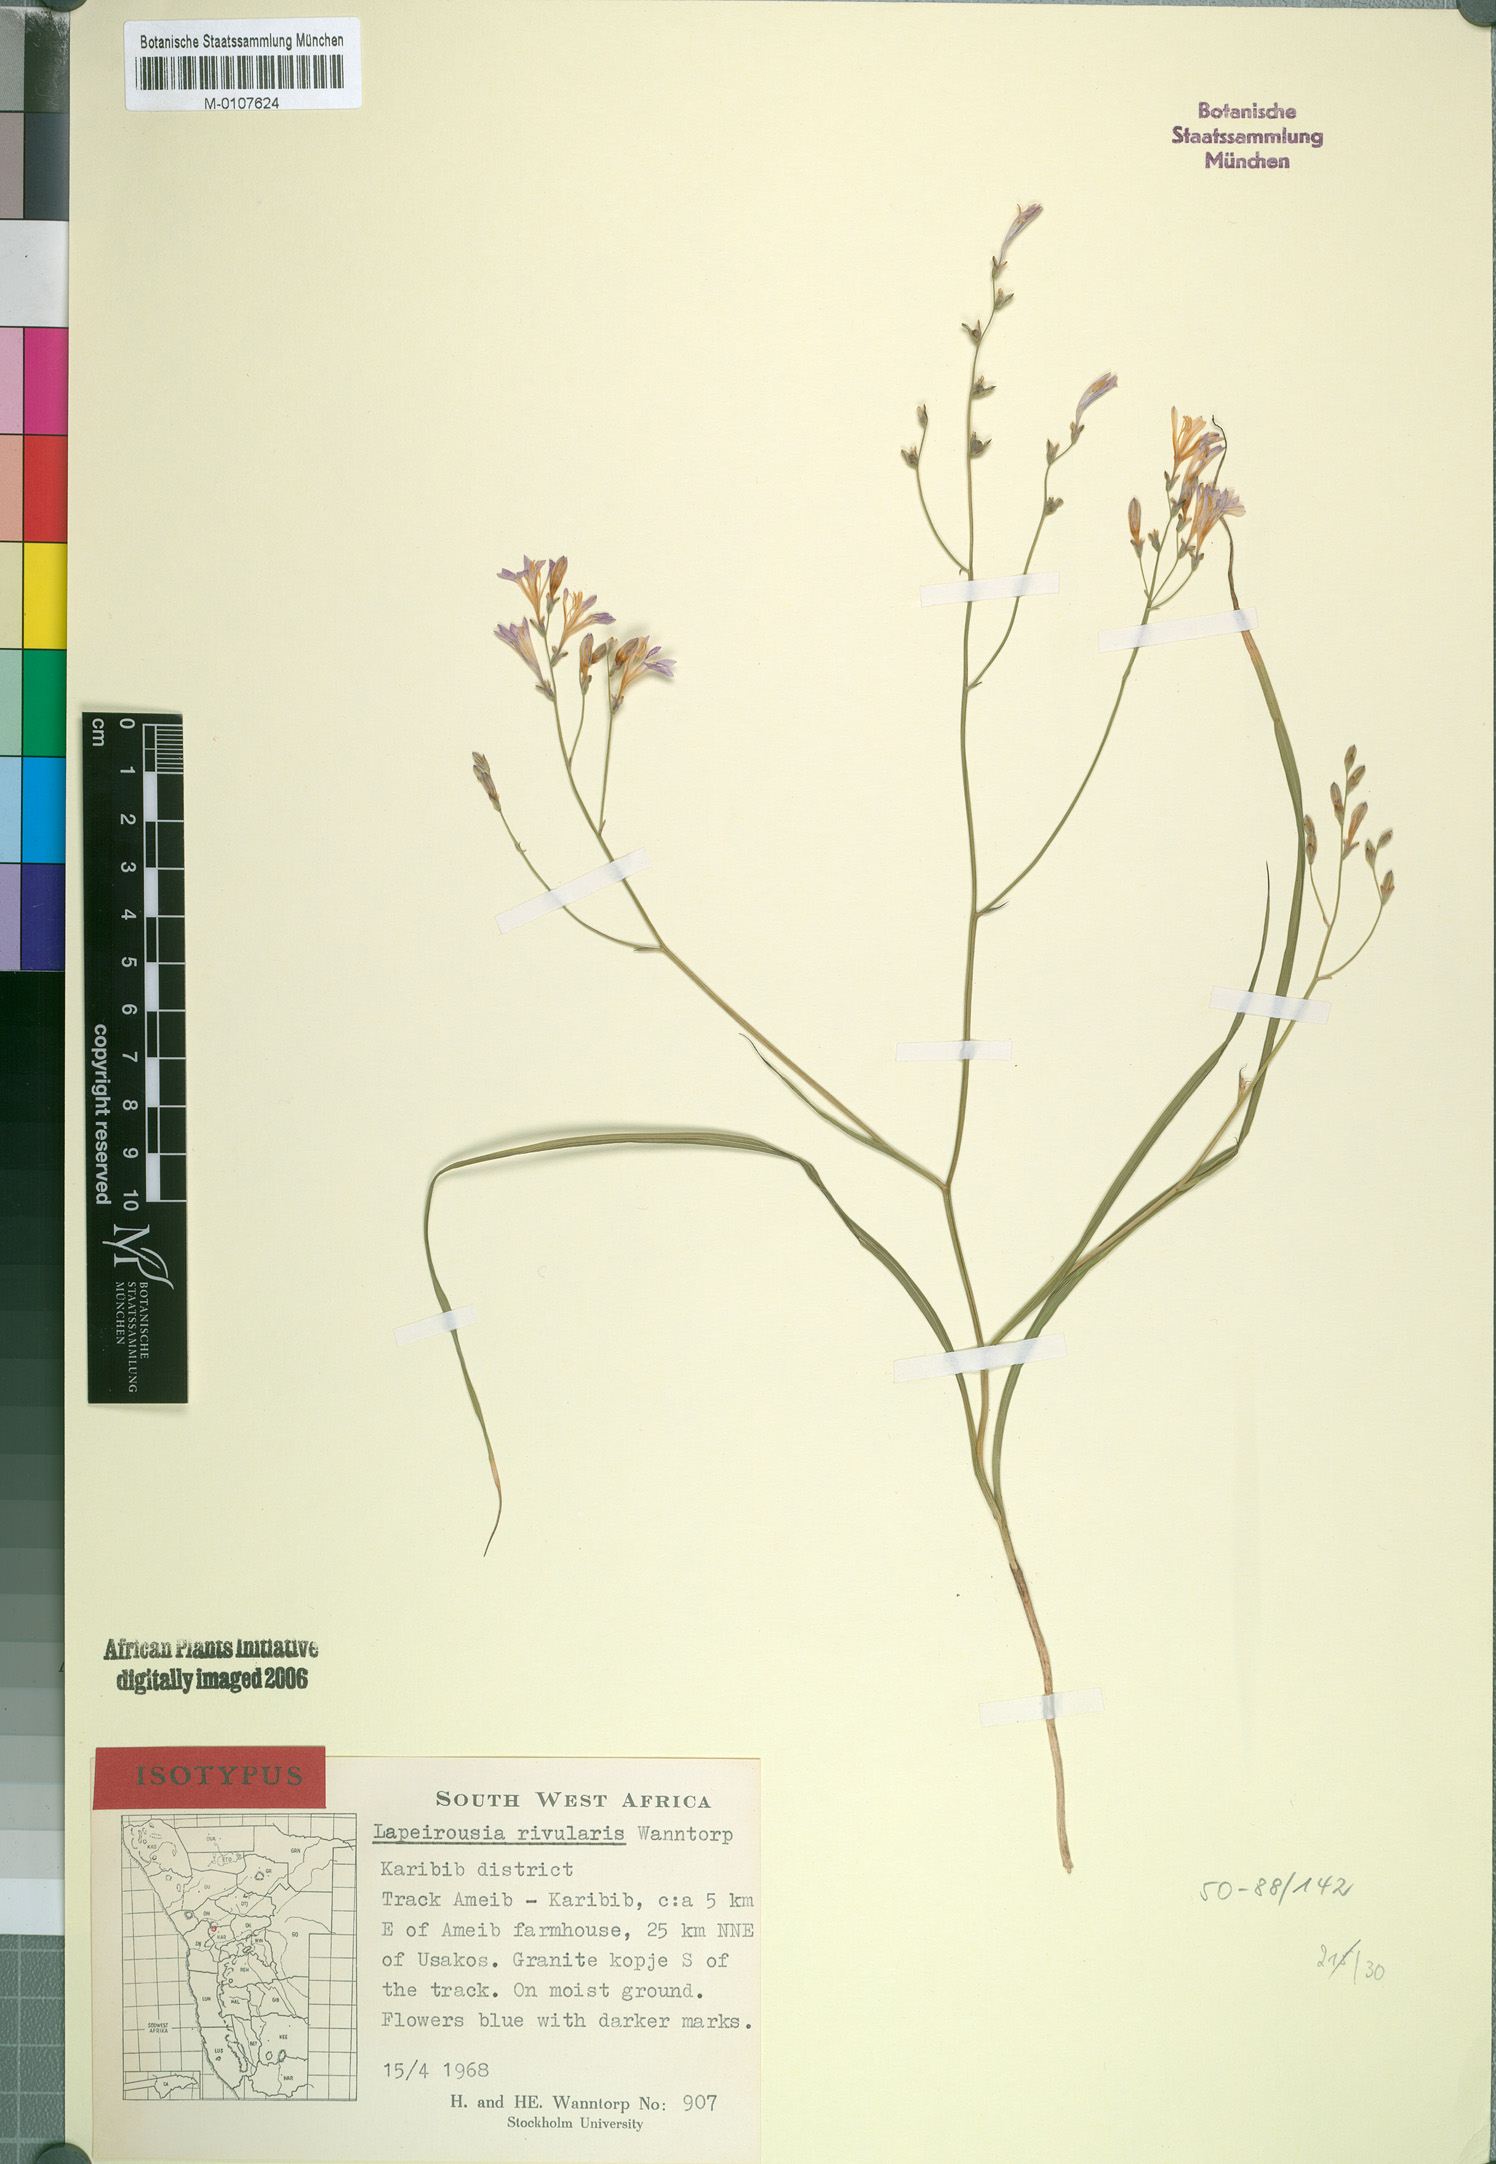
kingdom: Plantae
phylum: Tracheophyta
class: Liliopsida
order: Asparagales
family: Iridaceae
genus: Afrosolen
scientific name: Afrosolen rivularis
